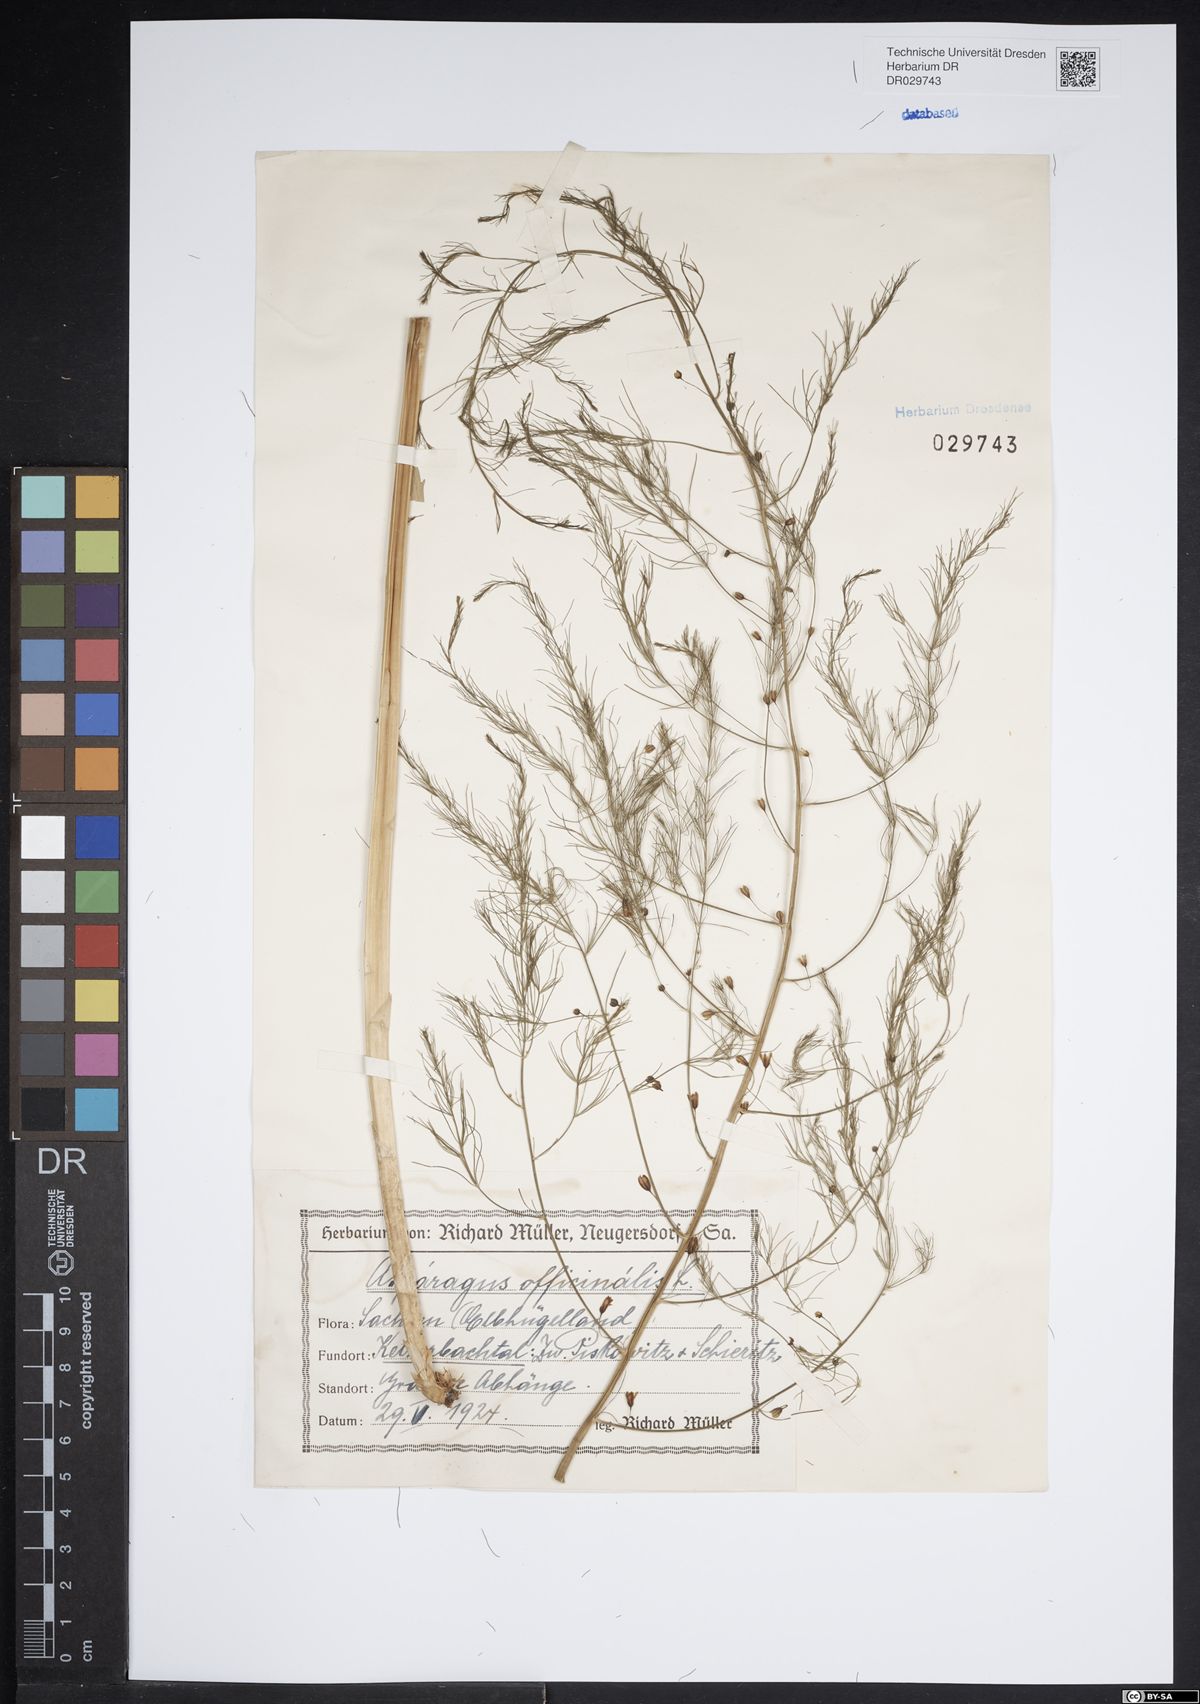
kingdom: Plantae
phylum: Tracheophyta
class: Liliopsida
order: Asparagales
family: Asparagaceae
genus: Asparagus
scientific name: Asparagus officinalis
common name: Garden asparagus
